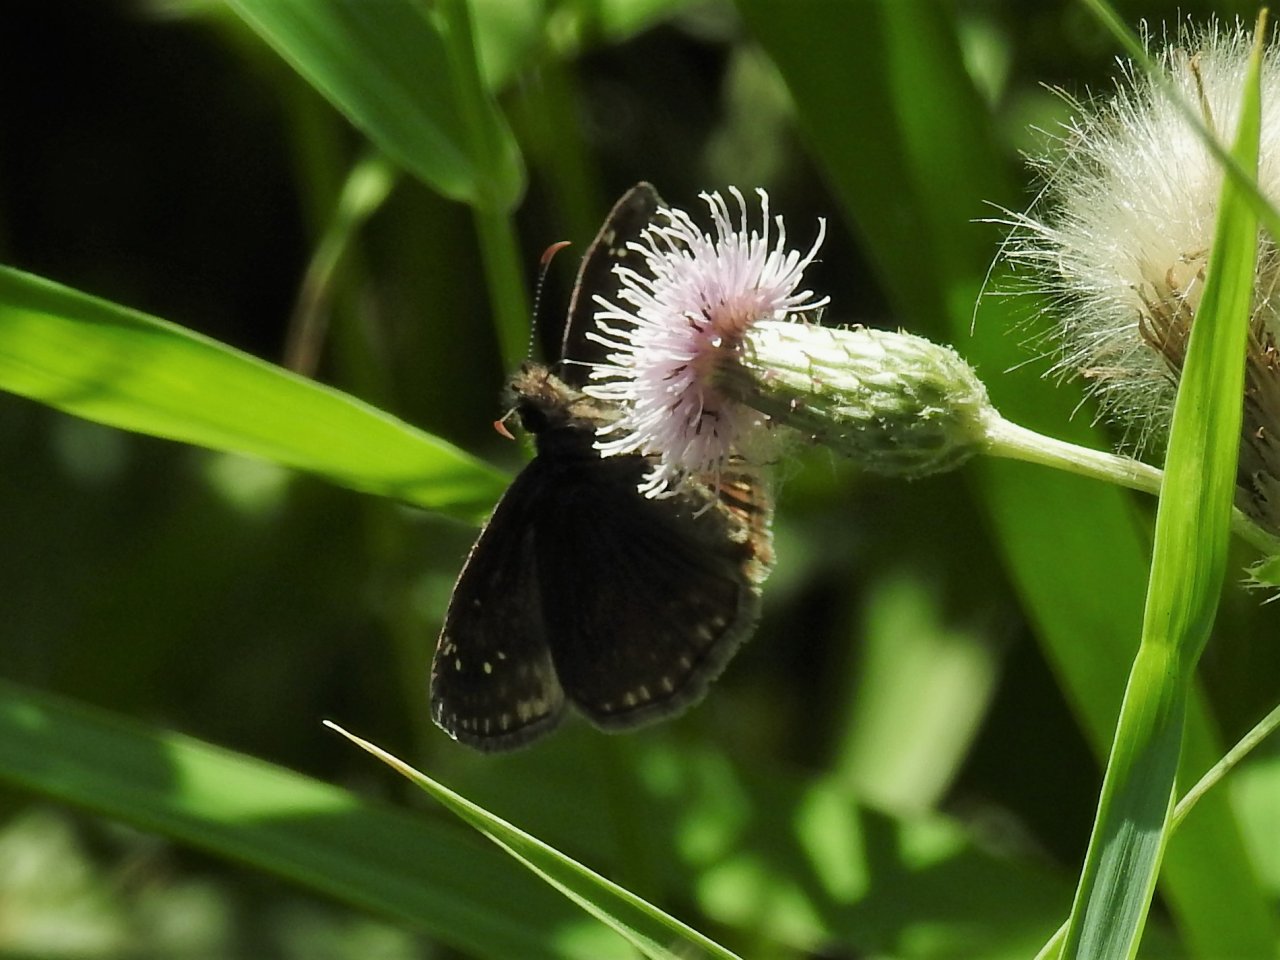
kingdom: Animalia
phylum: Arthropoda
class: Insecta
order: Lepidoptera
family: Hesperiidae
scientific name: Hesperiidae
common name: Skippers
